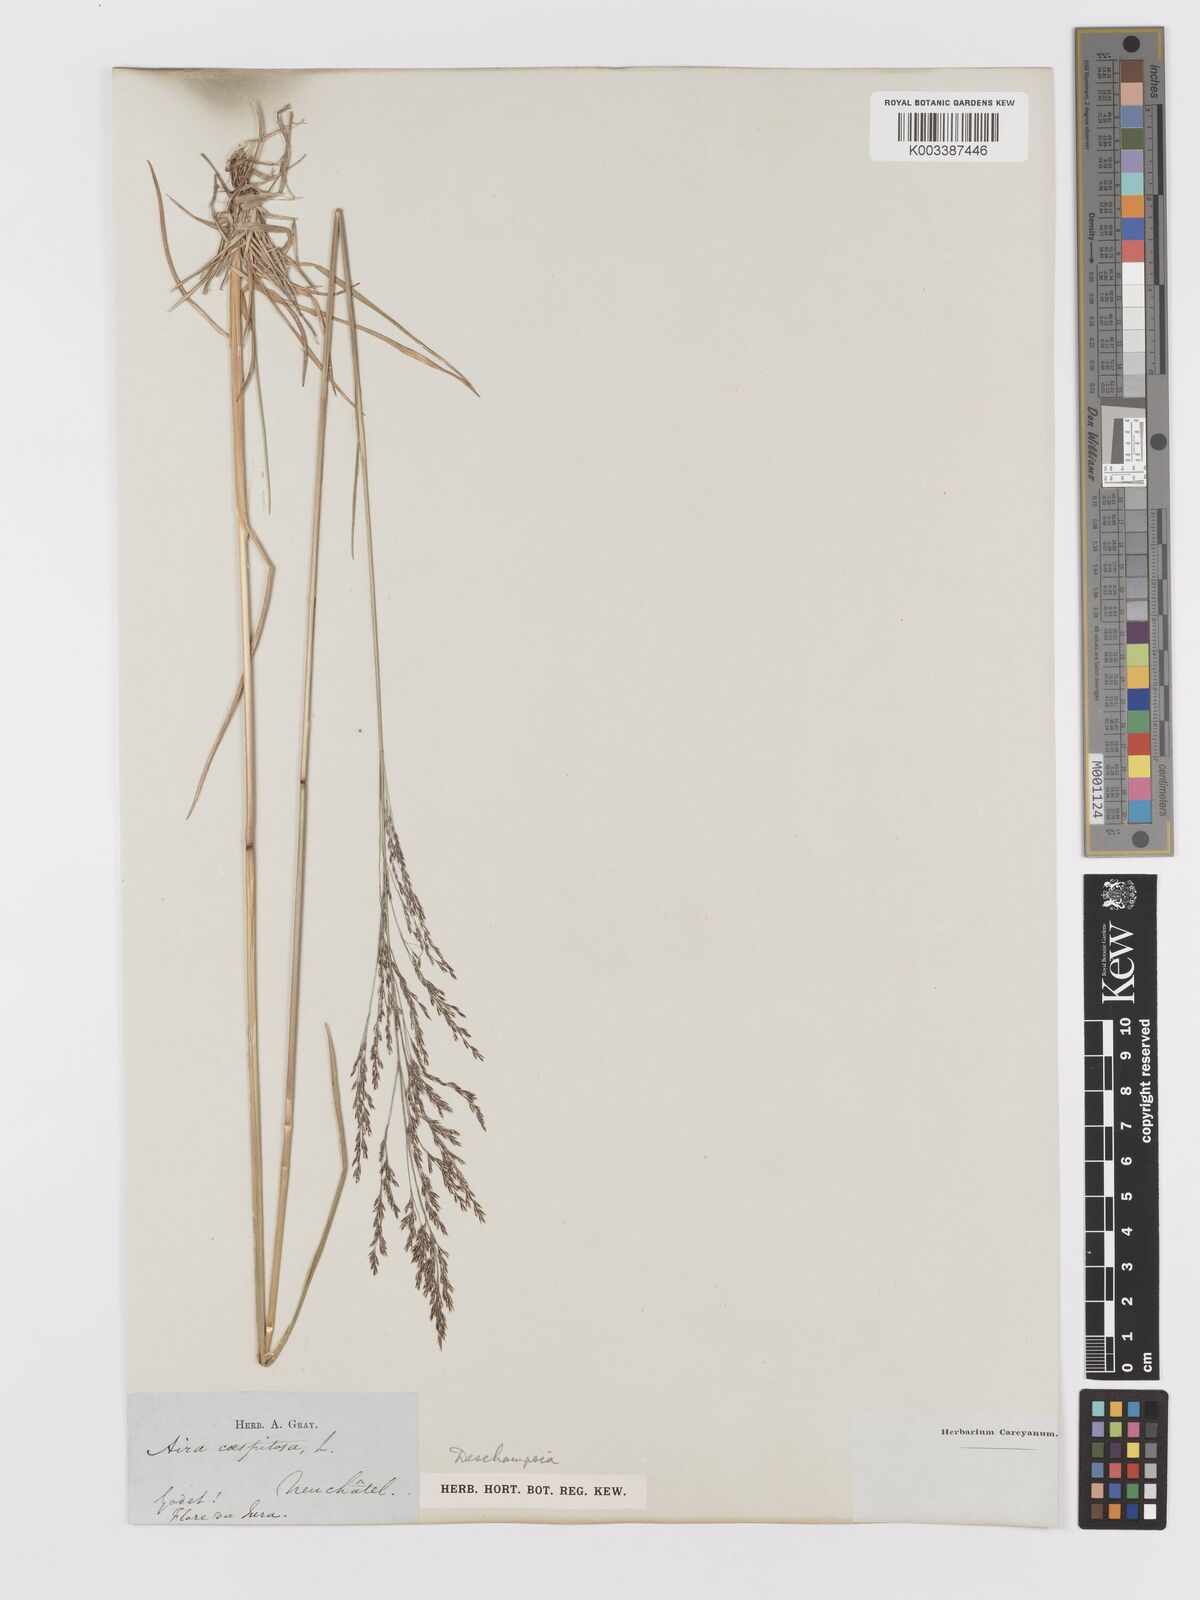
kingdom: Plantae
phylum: Tracheophyta
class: Liliopsida
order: Poales
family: Poaceae
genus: Deschampsia
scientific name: Deschampsia
